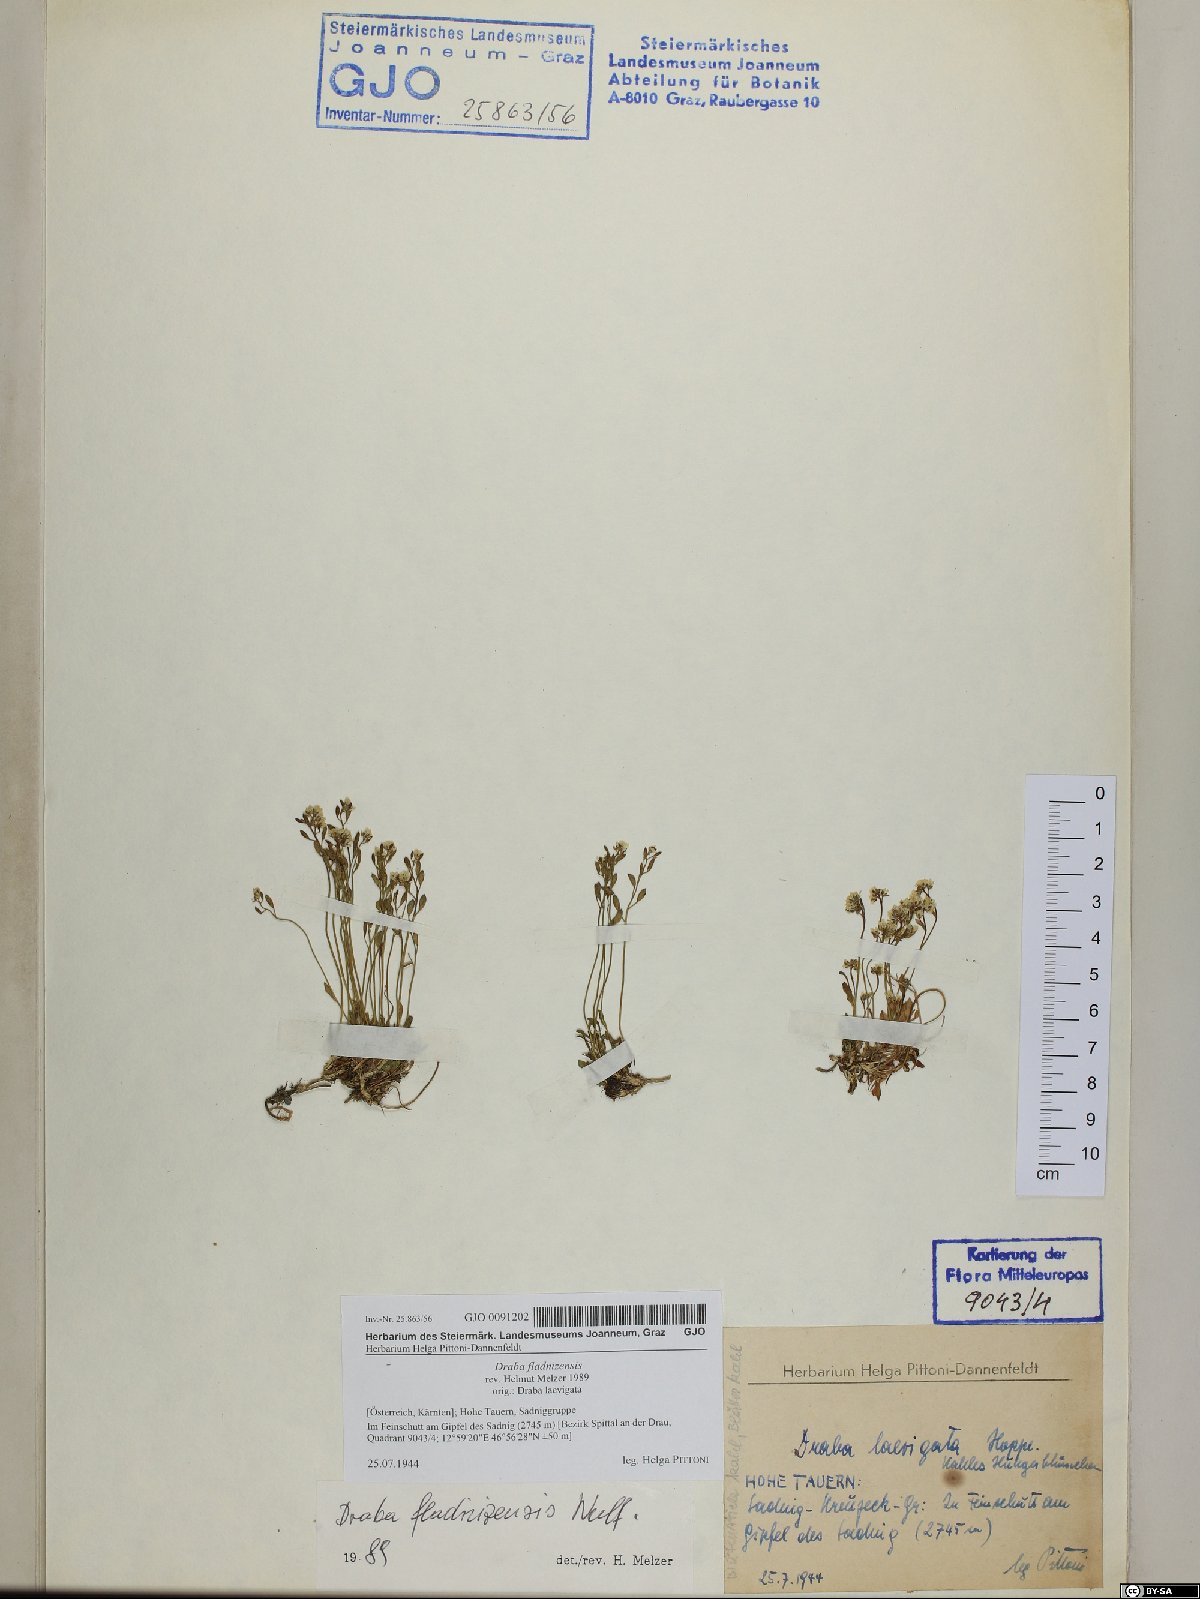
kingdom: Plantae
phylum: Tracheophyta
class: Magnoliopsida
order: Brassicales
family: Brassicaceae
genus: Draba
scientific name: Draba fladnizensis
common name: Austrian draba
